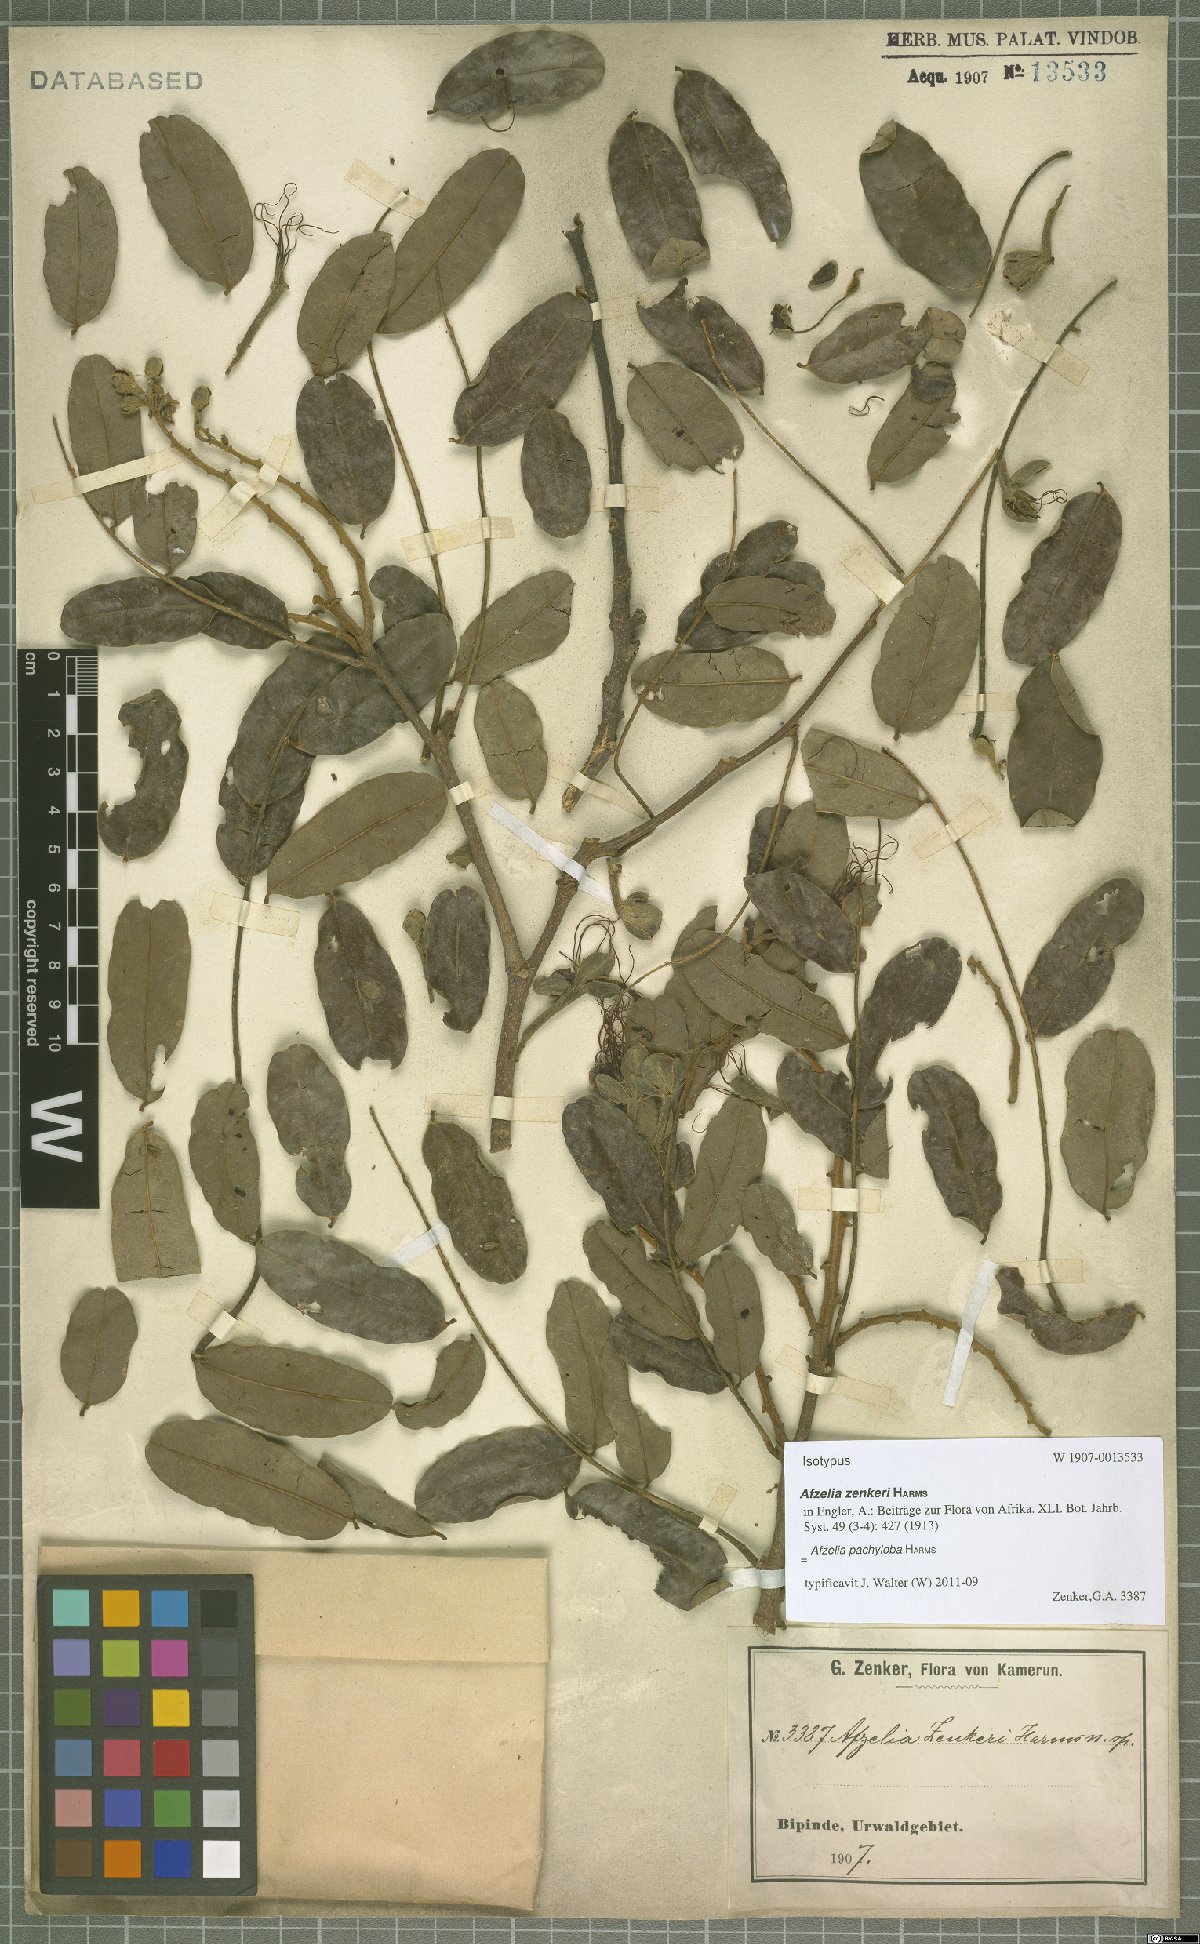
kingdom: Plantae
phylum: Tracheophyta
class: Magnoliopsida
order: Fabales
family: Fabaceae
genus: Afzelia
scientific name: Afzelia pachyloba
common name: White afzelia
